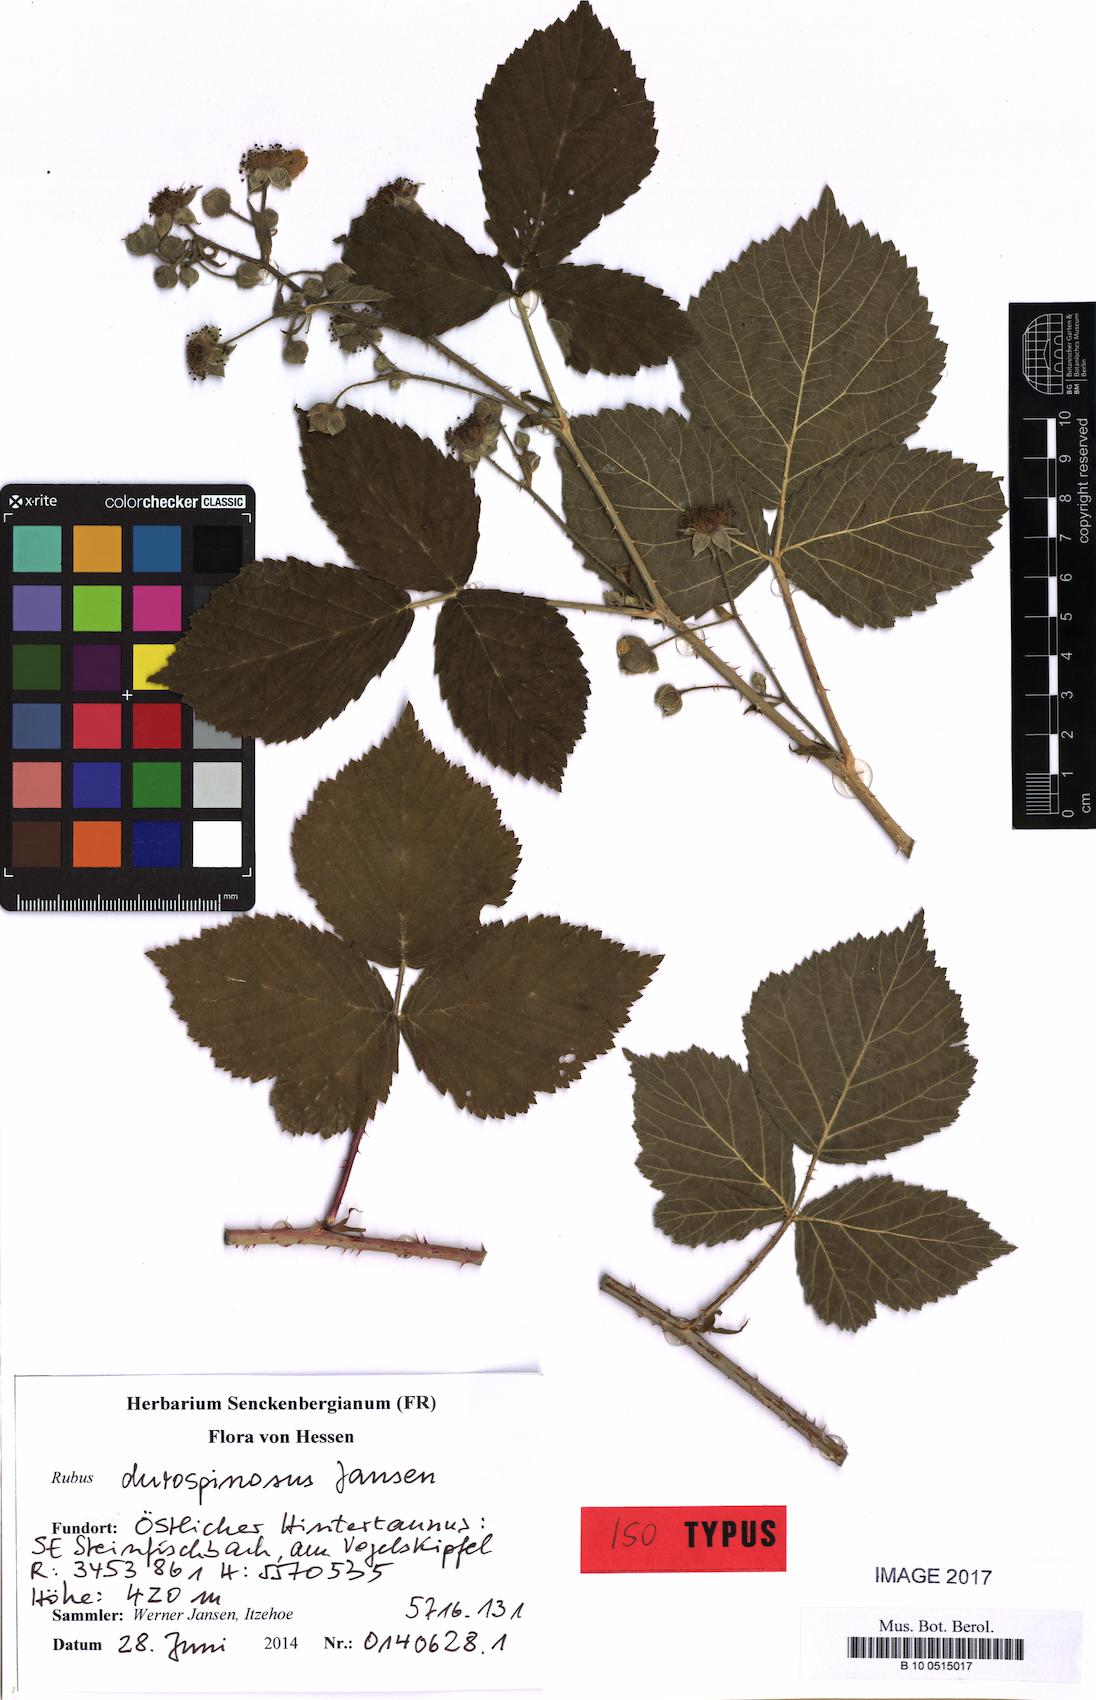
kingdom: Plantae
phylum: Tracheophyta
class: Magnoliopsida
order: Rosales
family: Rosaceae
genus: Rubus
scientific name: Rubus durospinosus
